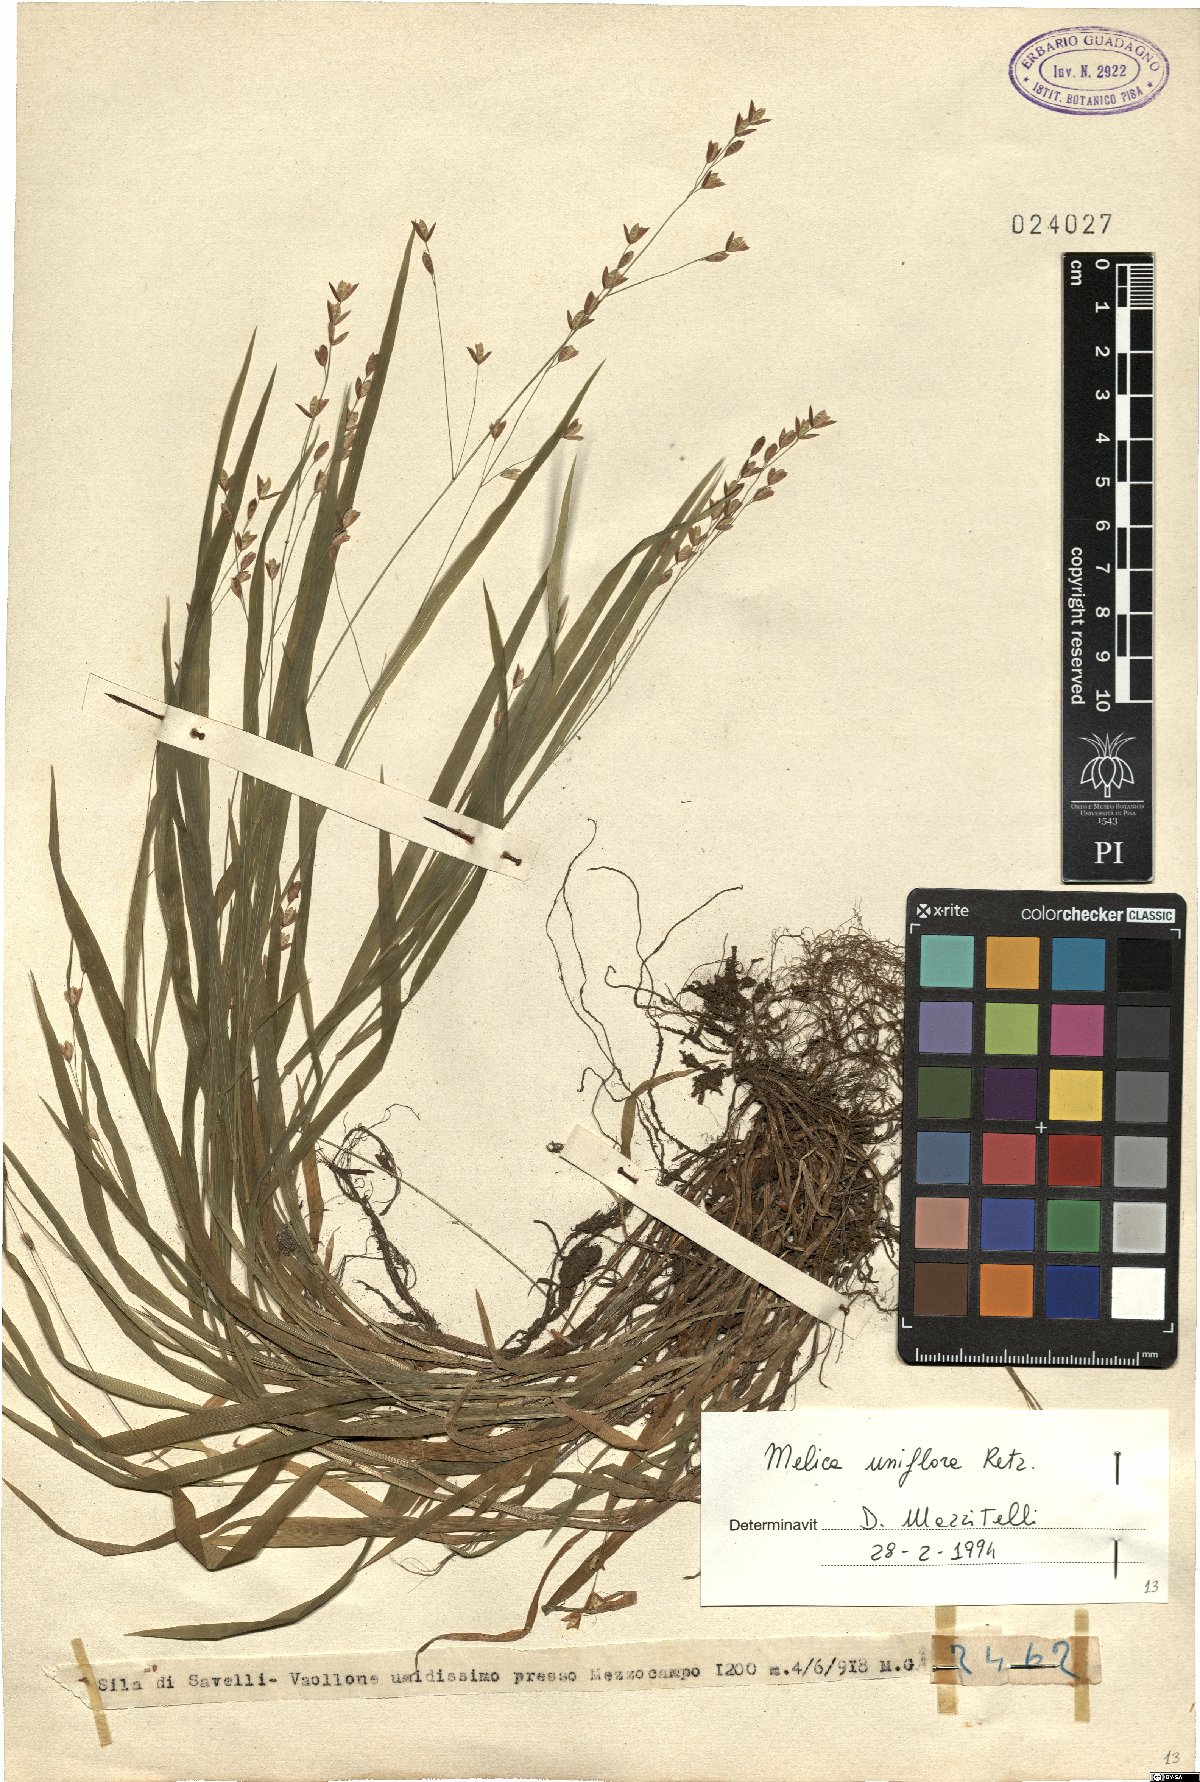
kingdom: Plantae
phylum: Tracheophyta
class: Liliopsida
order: Poales
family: Poaceae
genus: Melica
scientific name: Melica uniflora
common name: Wood melick
